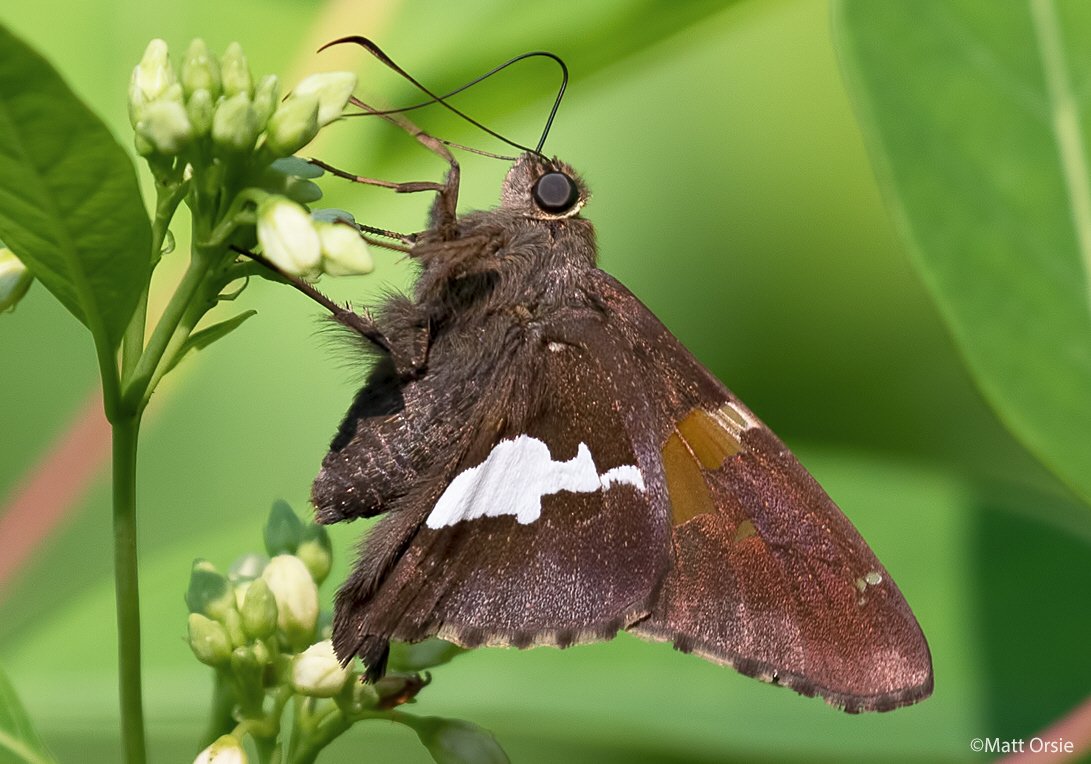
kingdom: Animalia
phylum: Arthropoda
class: Insecta
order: Lepidoptera
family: Hesperiidae
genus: Epargyreus
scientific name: Epargyreus clarus
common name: Silver-spotted Skipper
